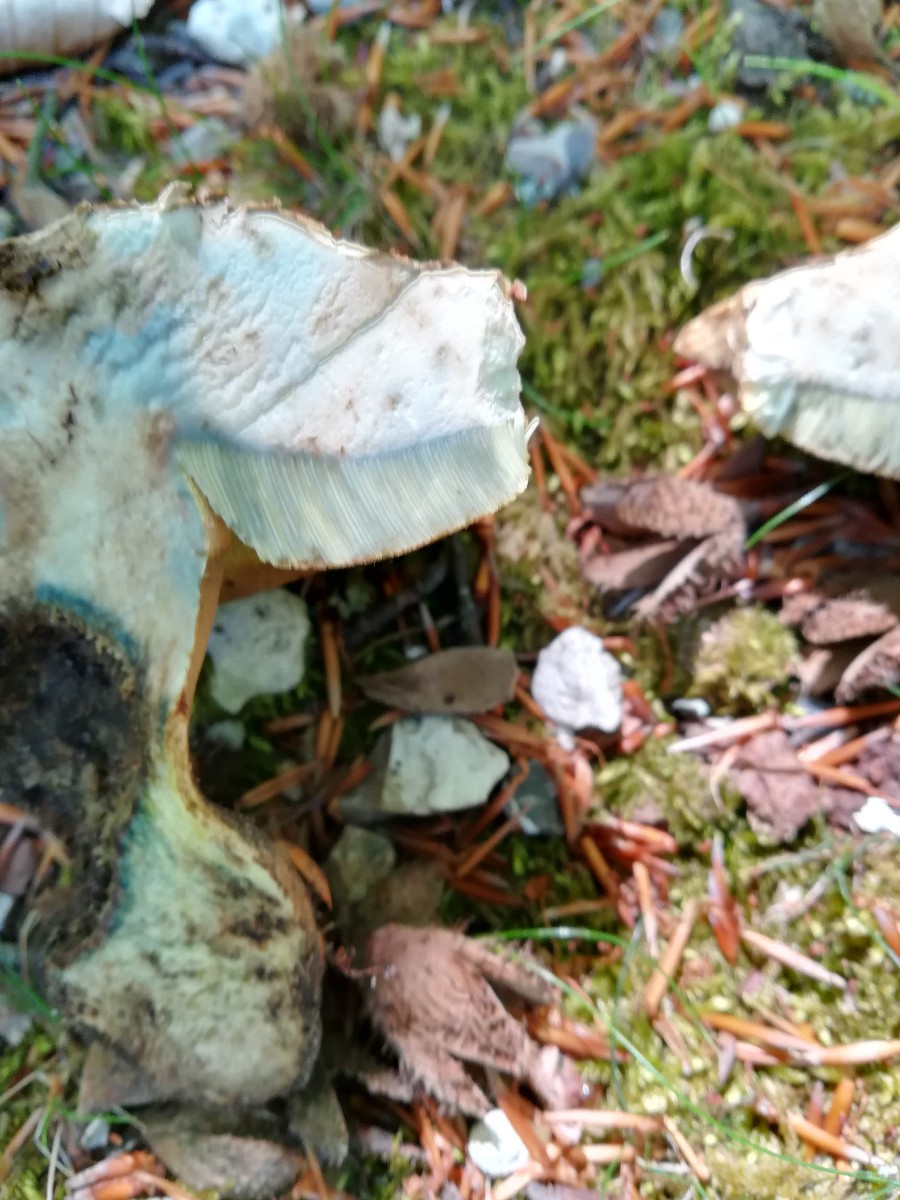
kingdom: Fungi
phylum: Basidiomycota
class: Agaricomycetes
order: Boletales
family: Boletaceae
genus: Caloboletus
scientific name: Caloboletus calopus
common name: skønfodet rørhat
